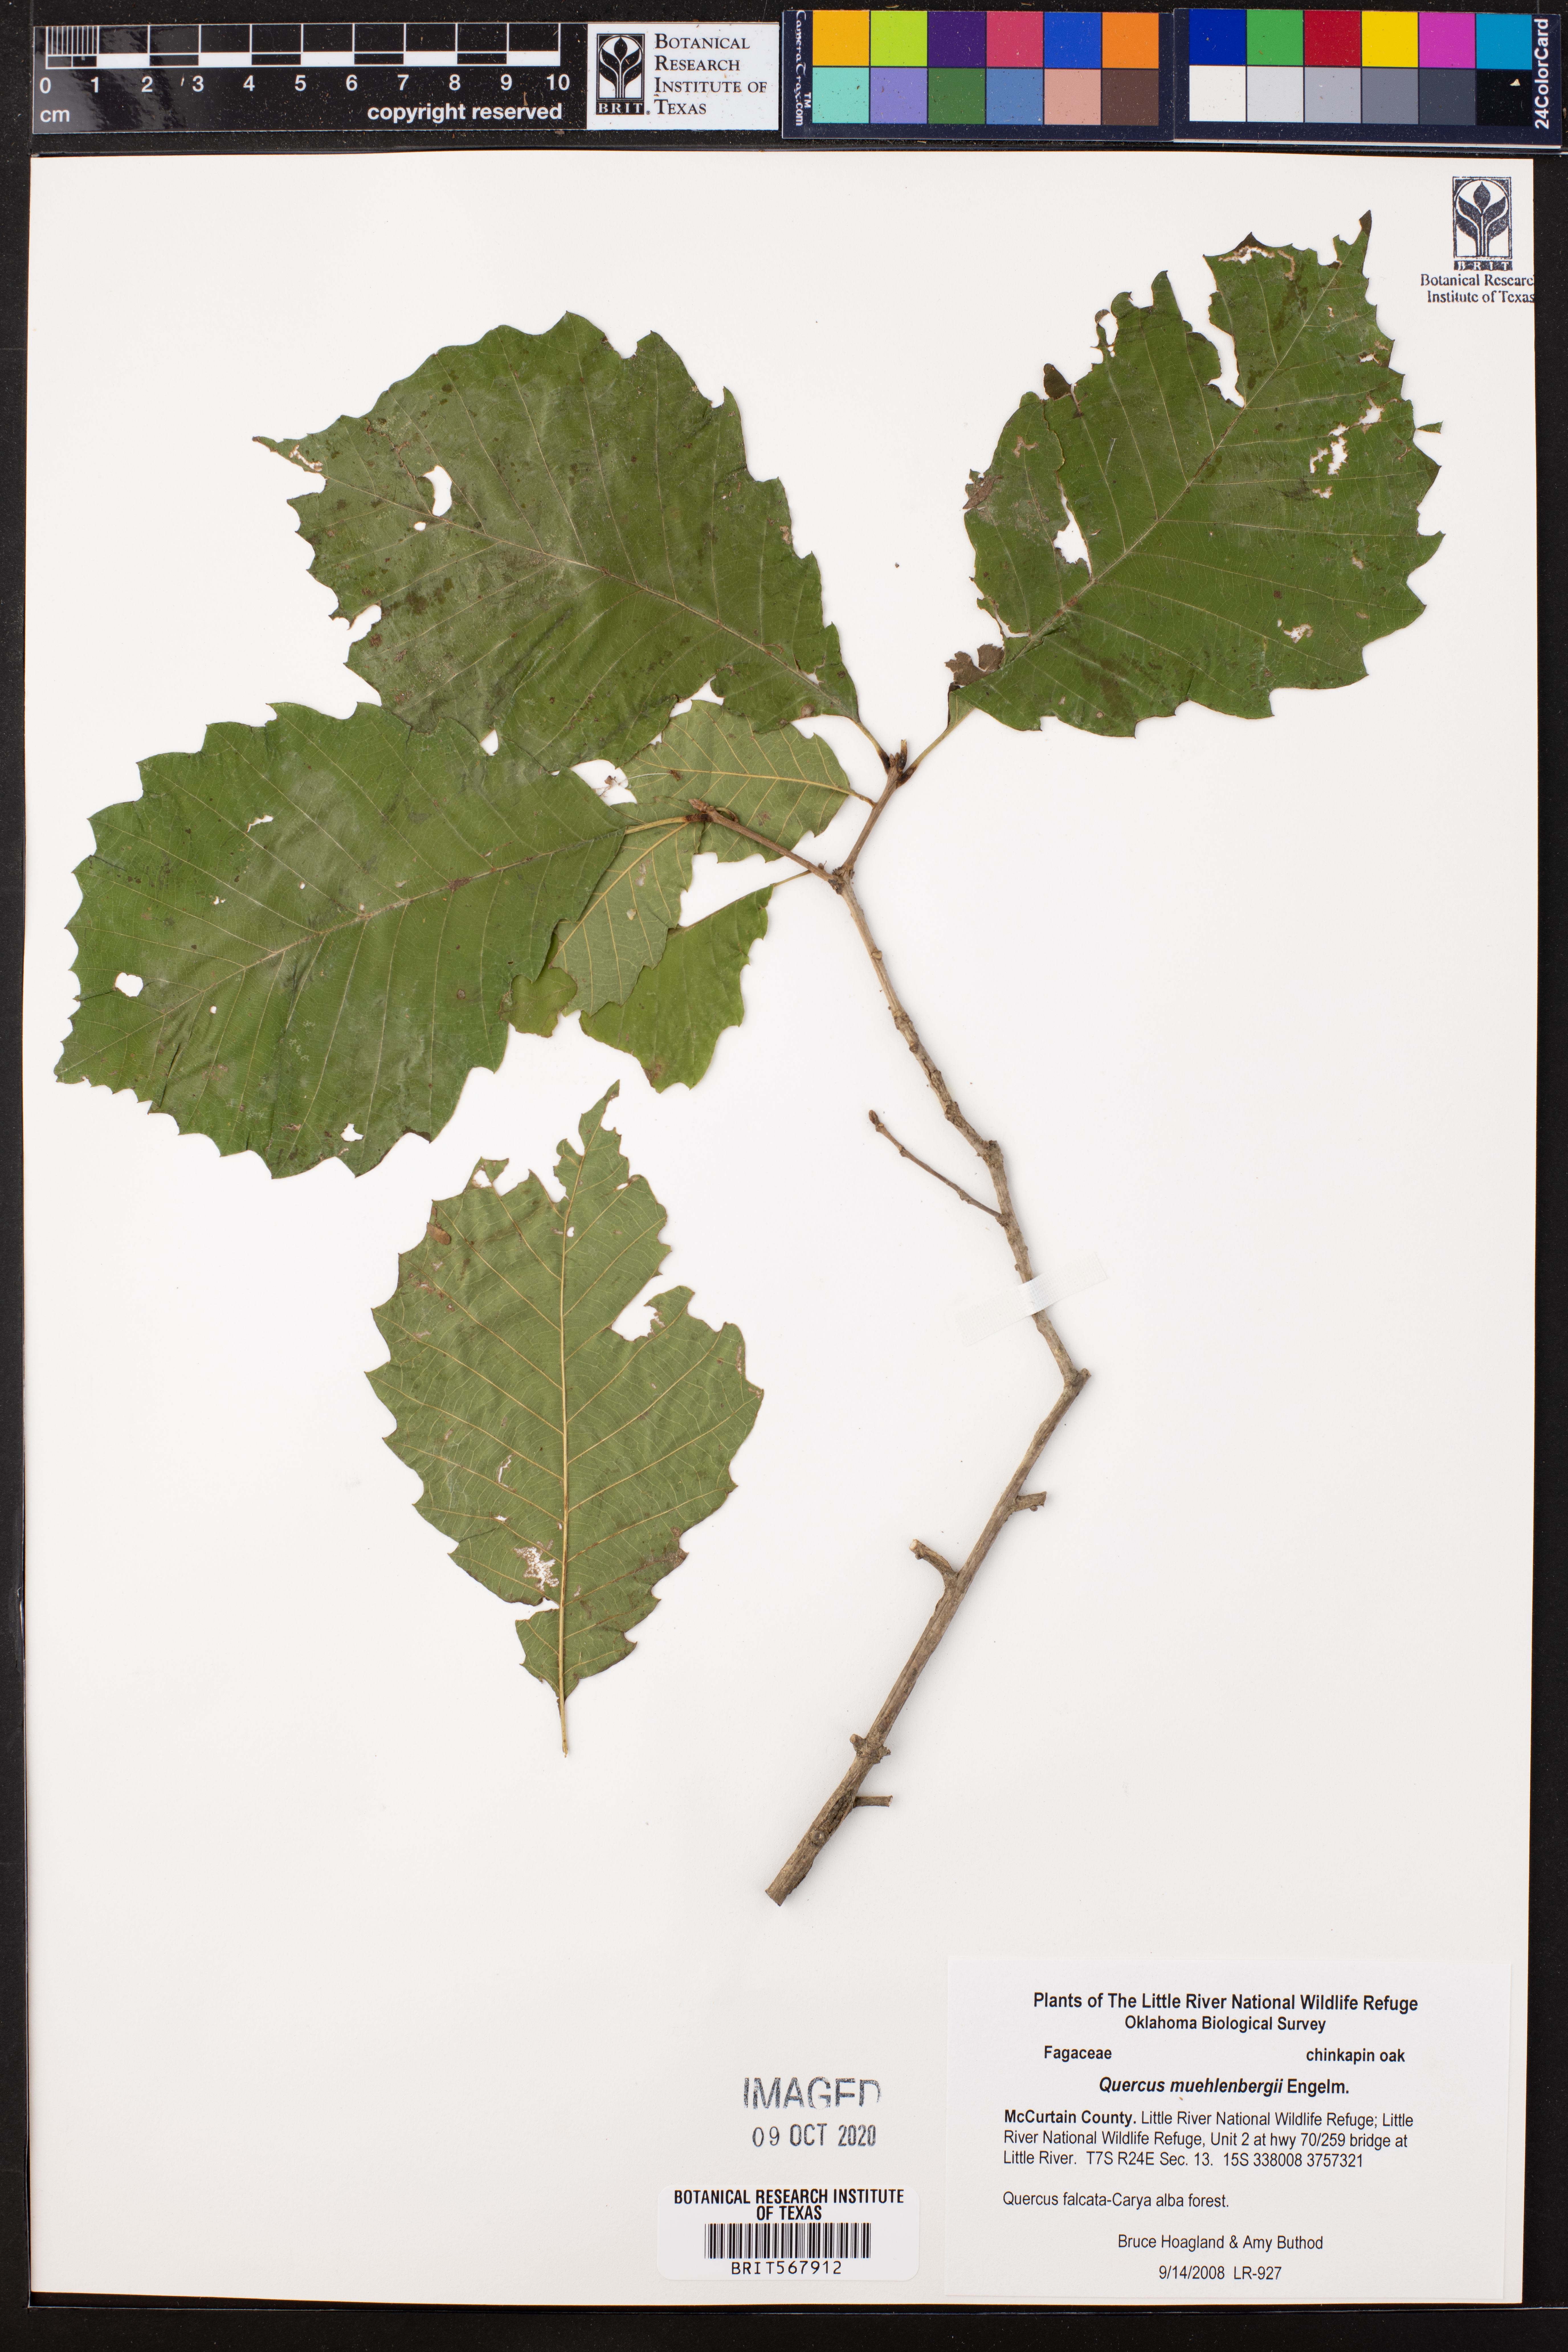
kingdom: Plantae
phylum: Tracheophyta
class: Magnoliopsida
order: Fagales
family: Fagaceae
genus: Quercus
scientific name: Quercus muehlenbergii
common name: Chinkapin oak
